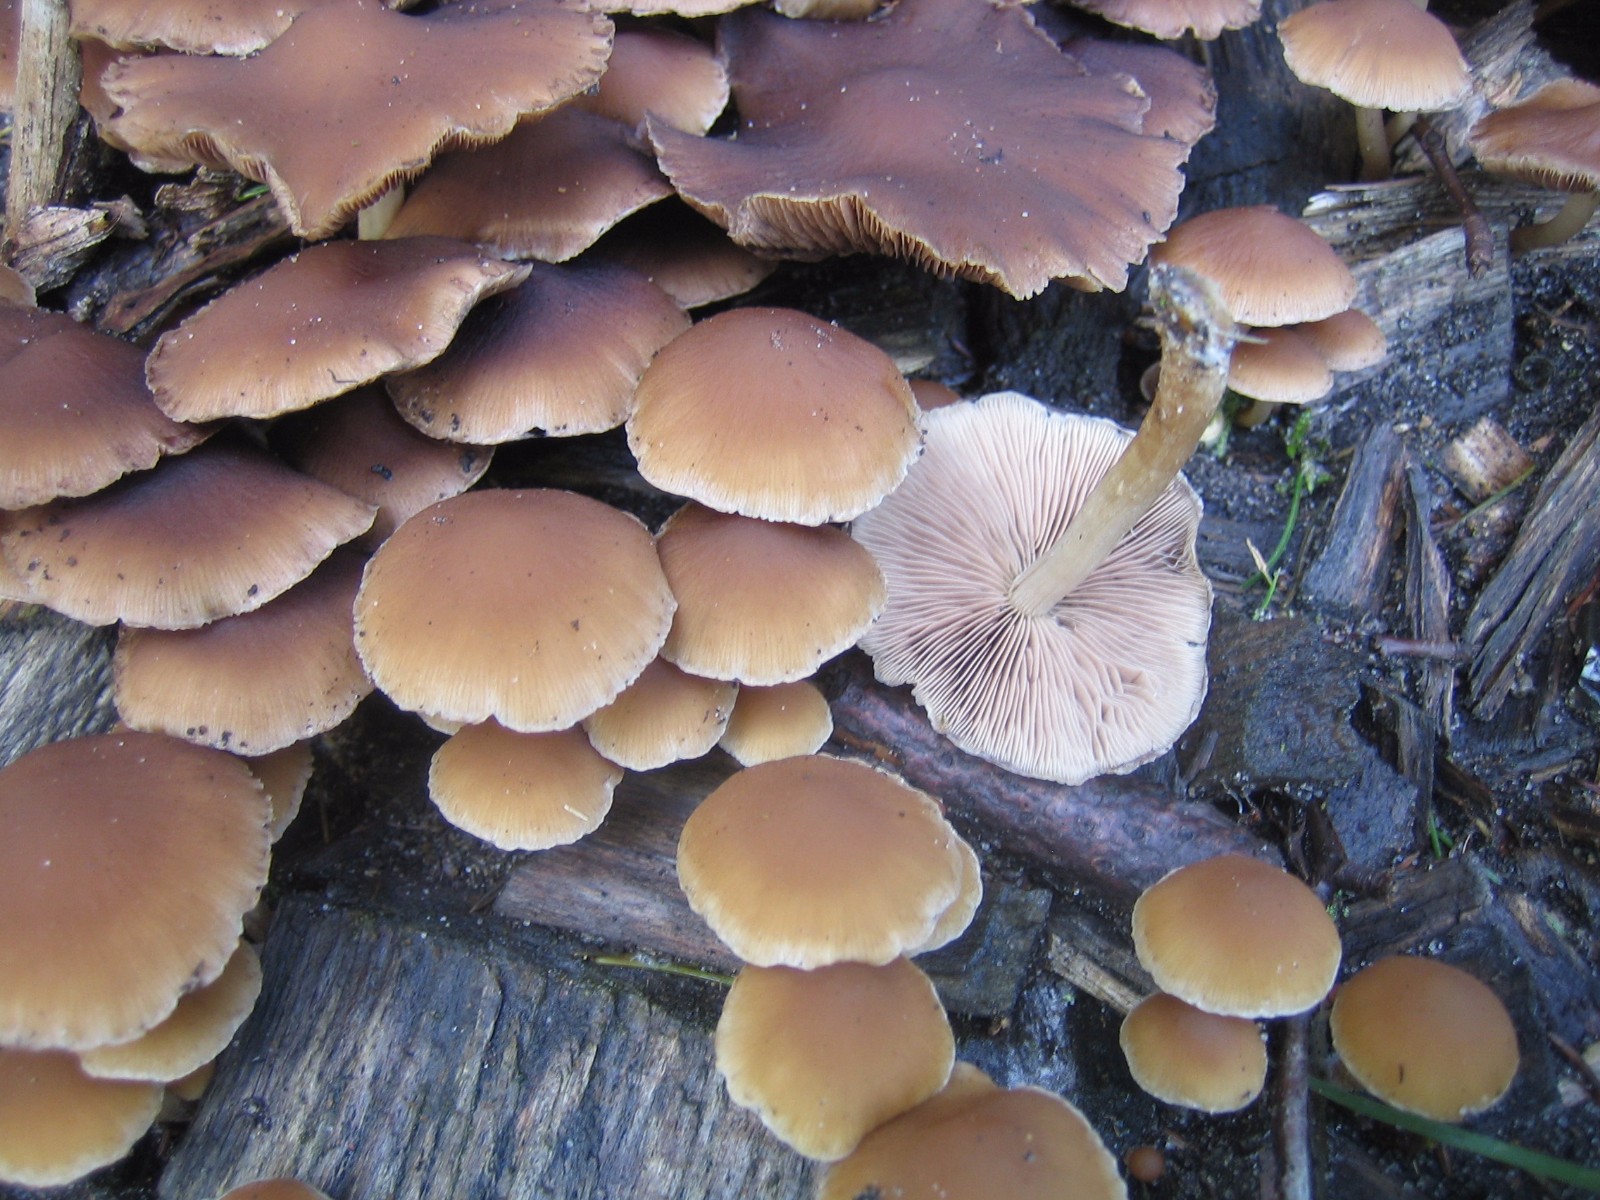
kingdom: Fungi
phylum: Basidiomycota
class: Agaricomycetes
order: Agaricales
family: Psathyrellaceae
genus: Psathyrella
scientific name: Psathyrella piluliformis
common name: lysstokket mørkhat
